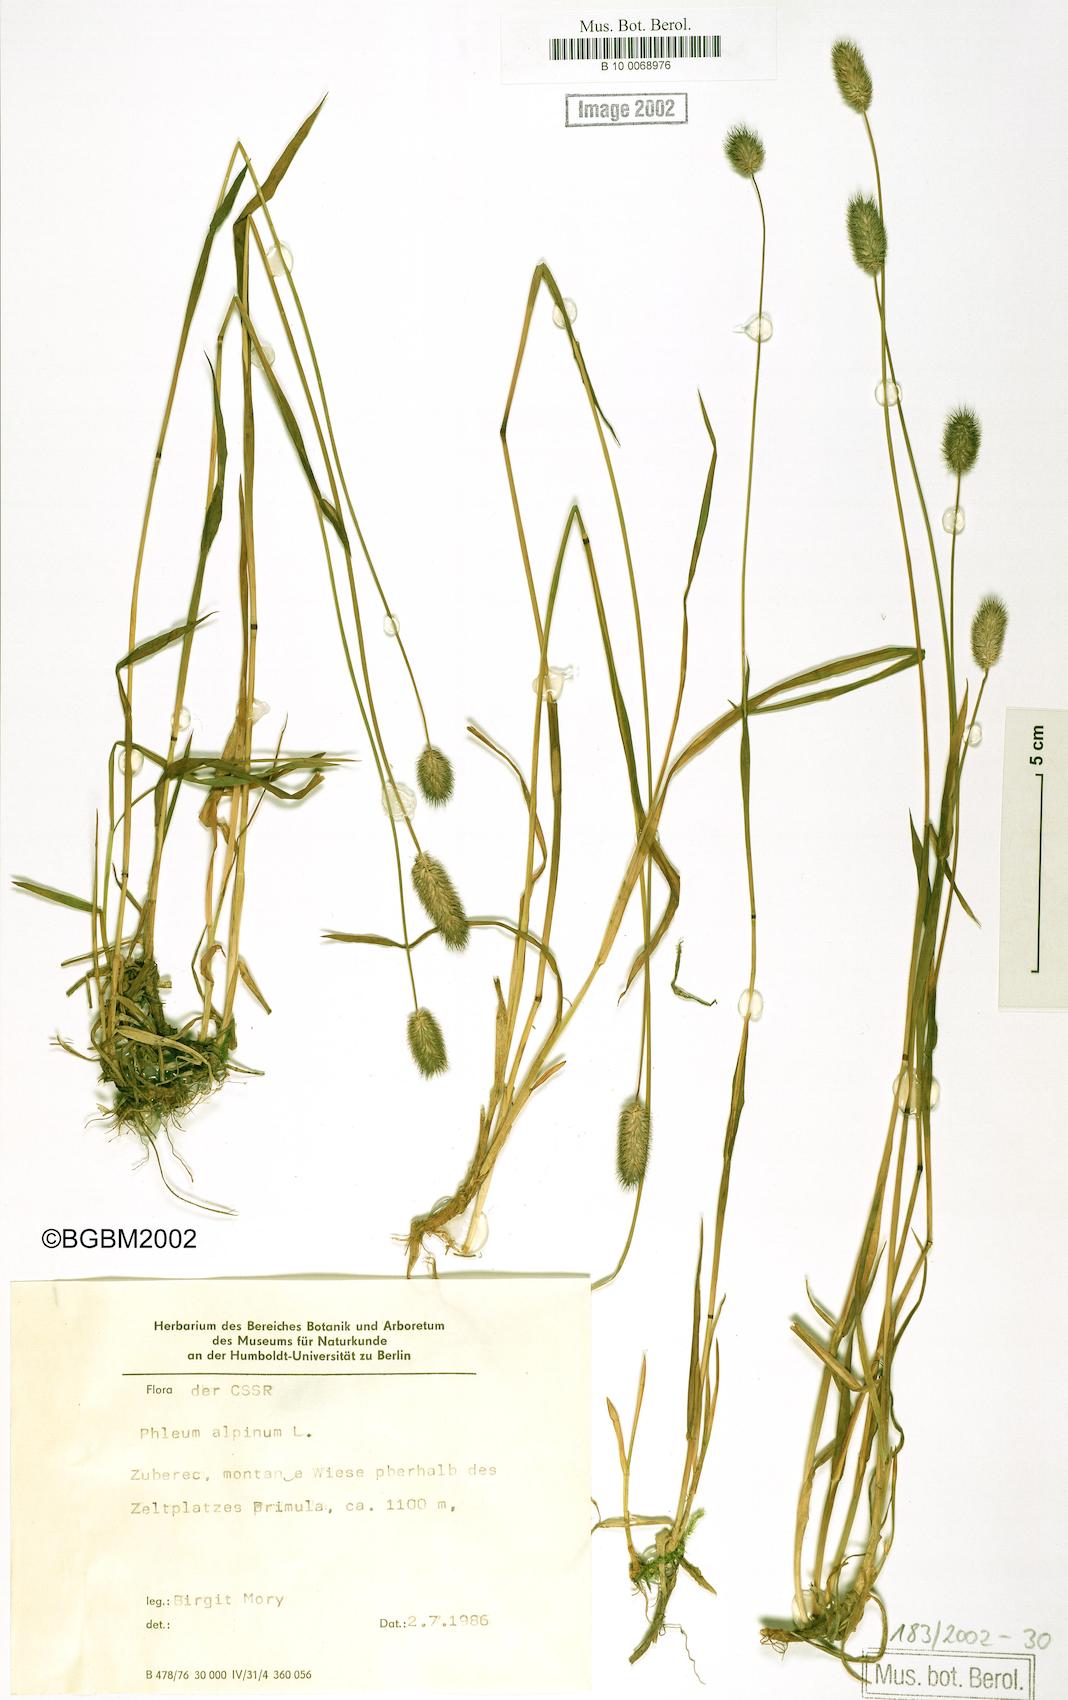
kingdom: Plantae
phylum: Tracheophyta
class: Liliopsida
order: Poales
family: Poaceae
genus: Phleum
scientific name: Phleum alpinum
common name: Alpine cat's-tail
